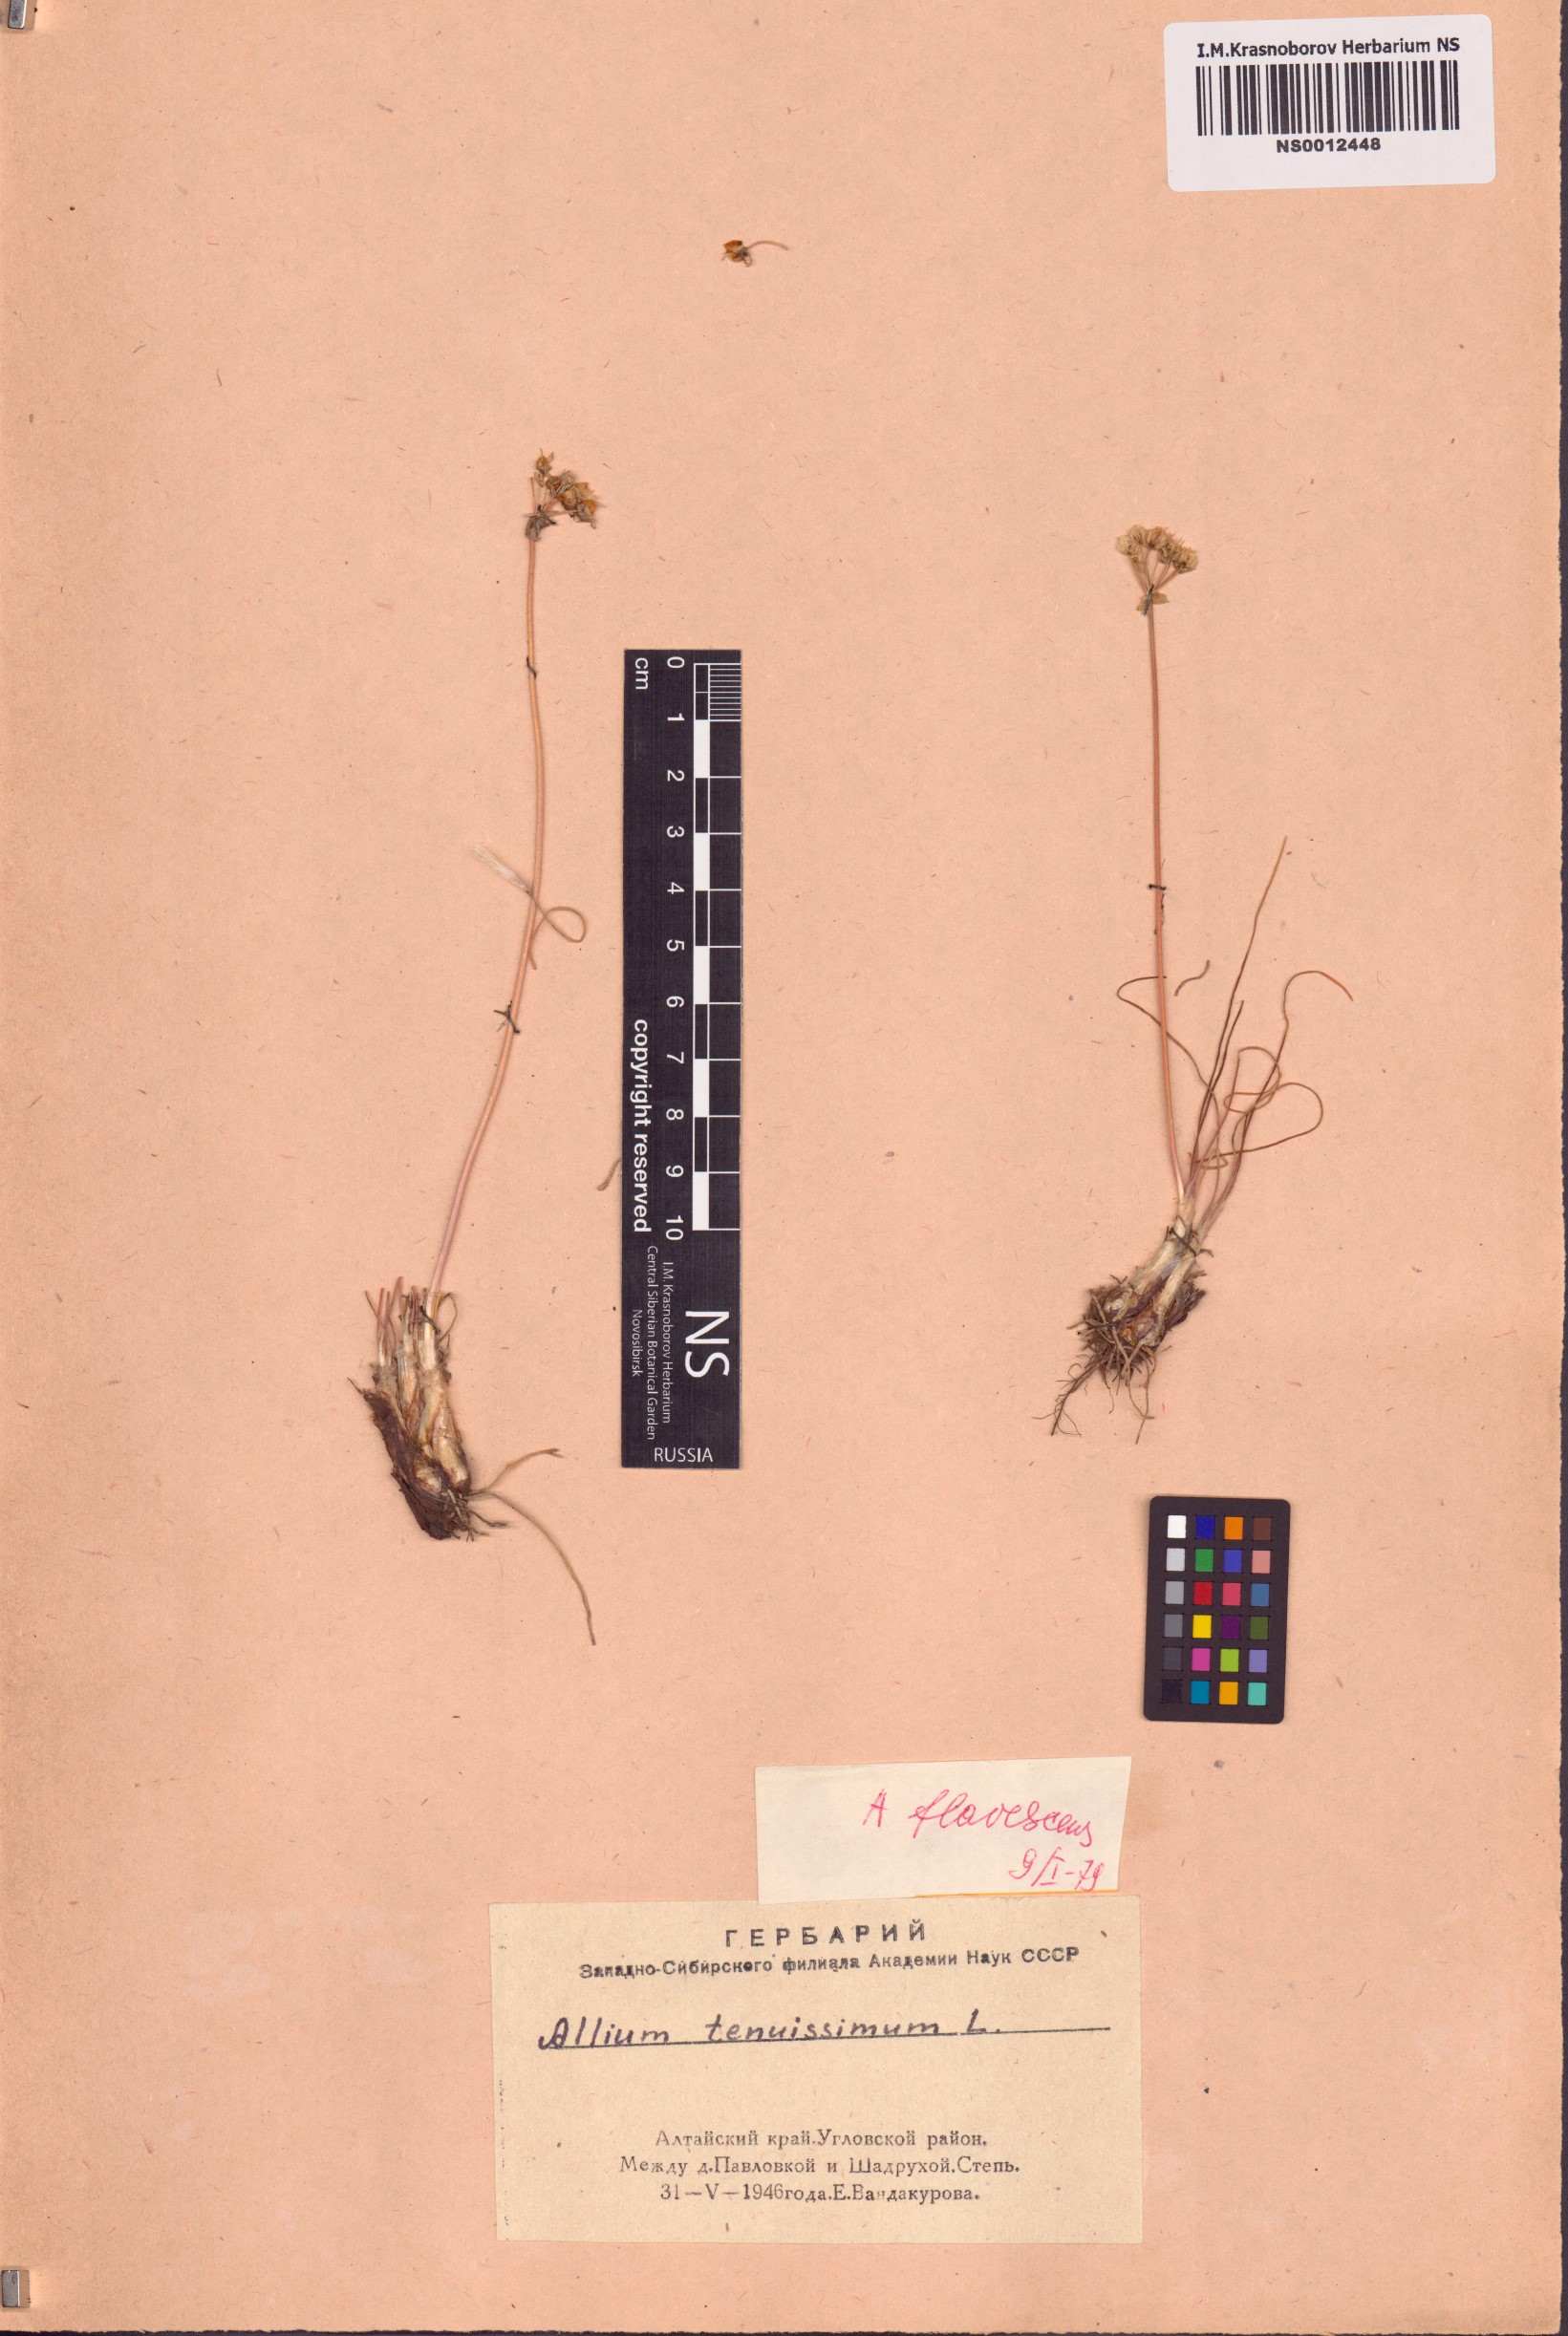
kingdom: Plantae
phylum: Tracheophyta
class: Liliopsida
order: Asparagales
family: Amaryllidaceae
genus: Allium
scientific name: Allium flavescens
